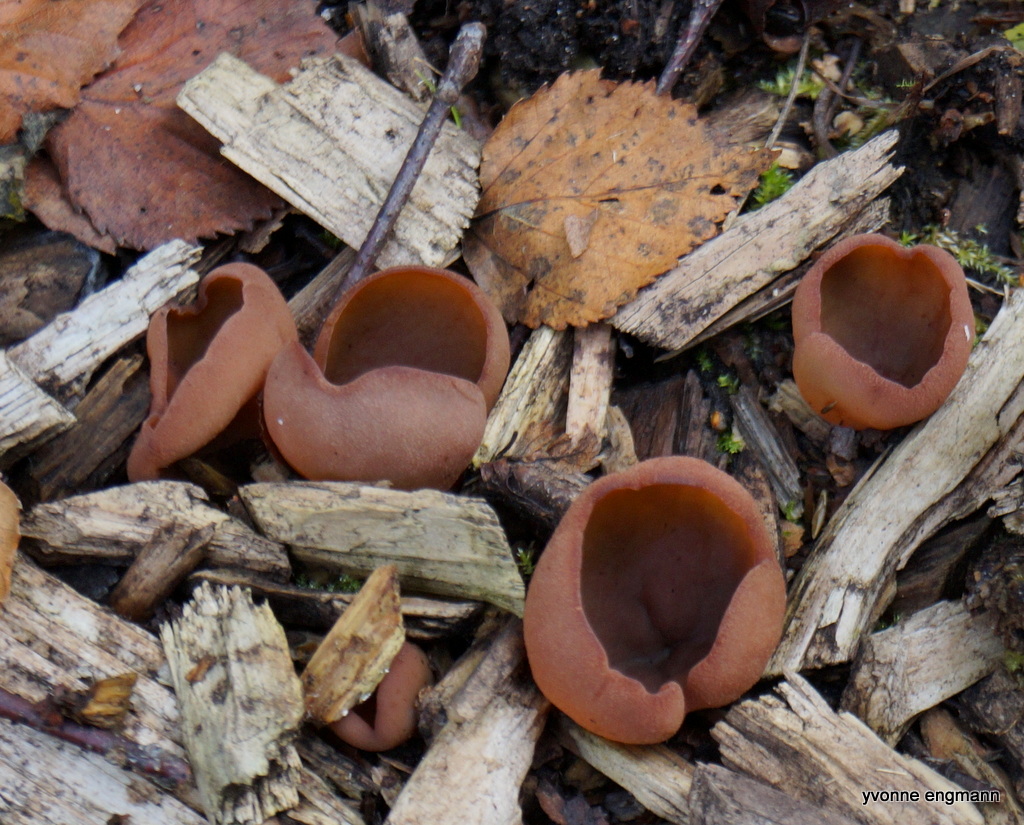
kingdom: Fungi
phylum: Ascomycota
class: Pezizomycetes
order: Pezizales
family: Pezizaceae
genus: Peziza
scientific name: Peziza
